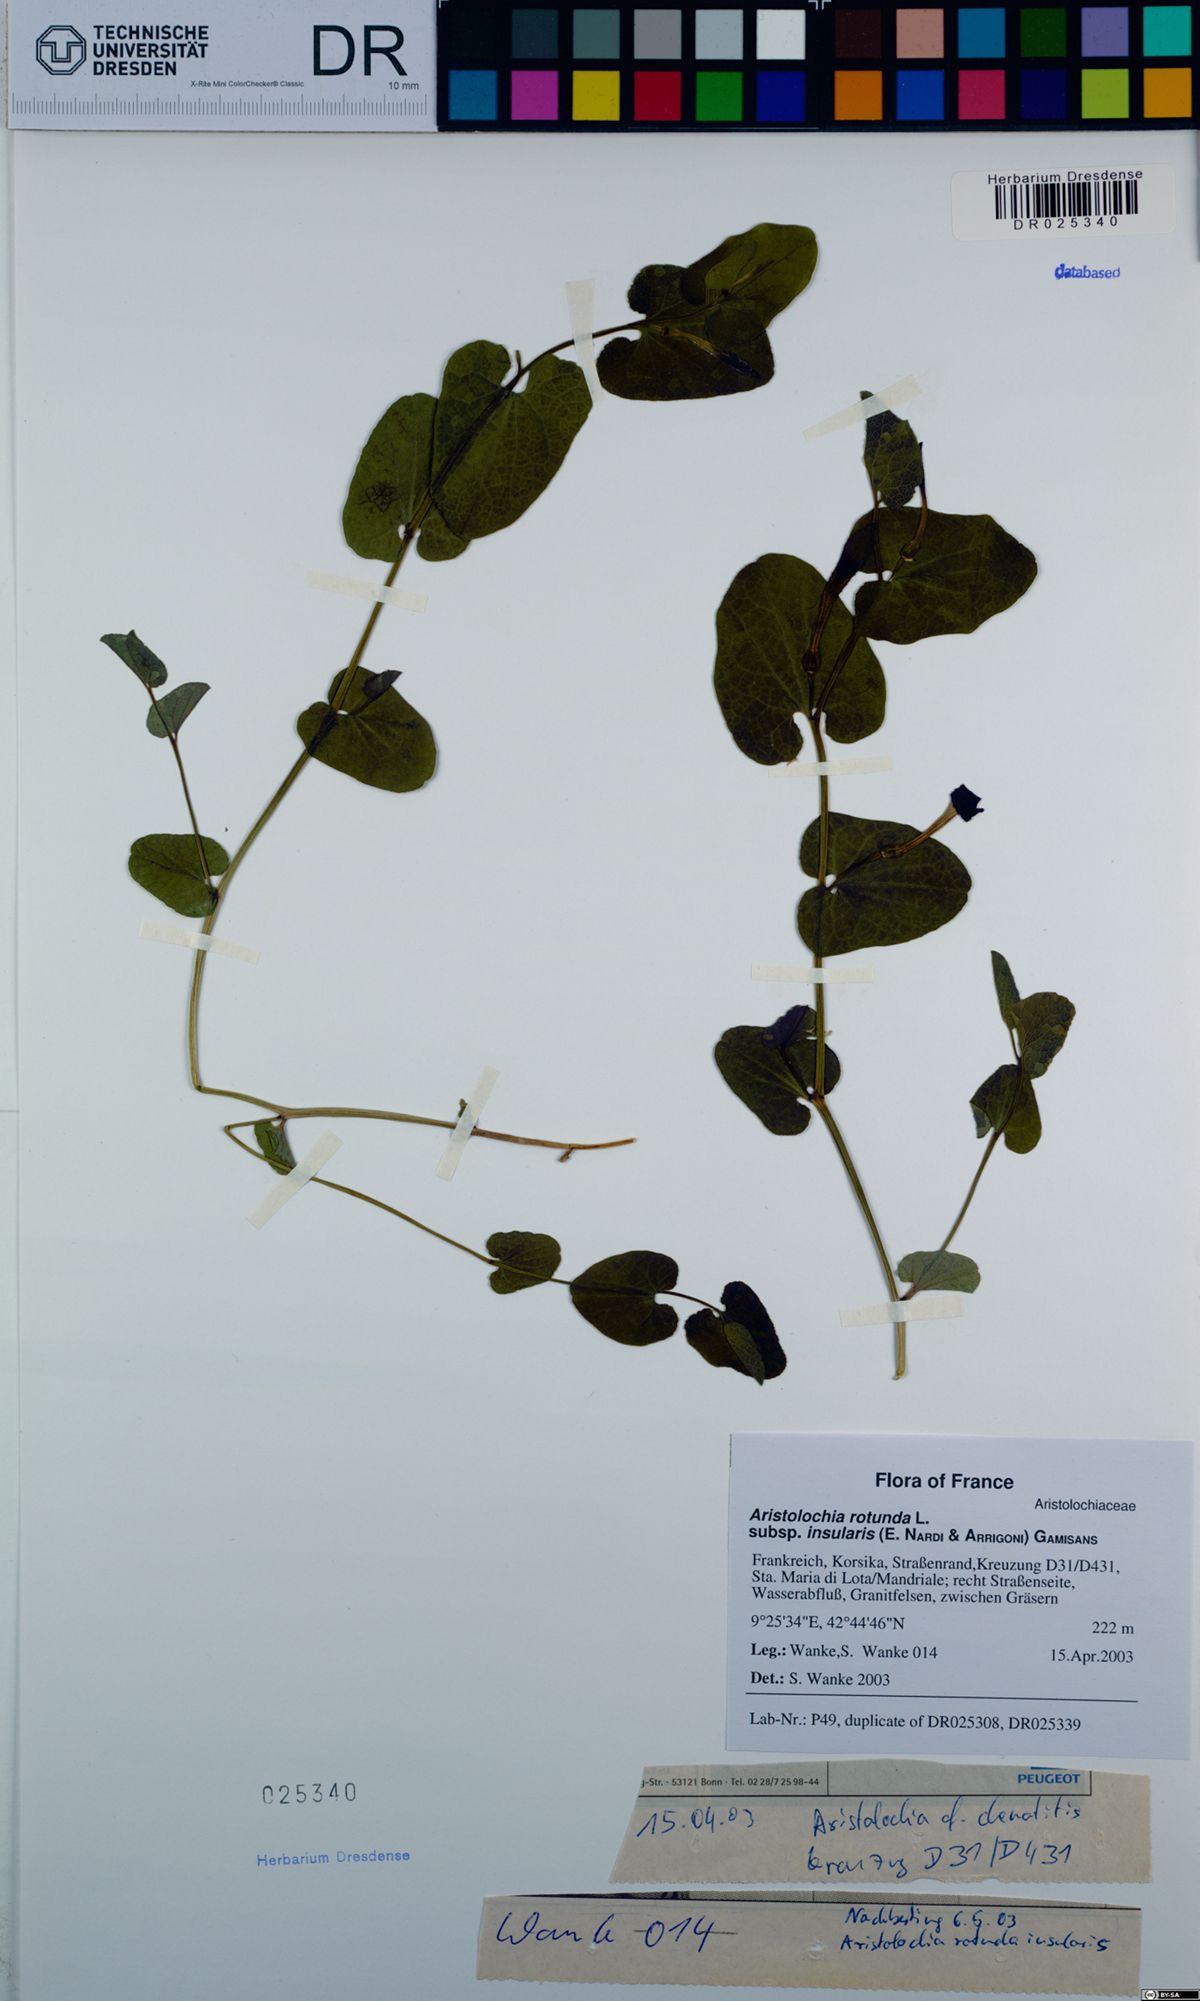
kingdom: Plantae
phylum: Tracheophyta
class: Magnoliopsida
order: Piperales
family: Aristolochiaceae
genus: Aristolochia
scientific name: Aristolochia rotunda
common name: Smearwort
